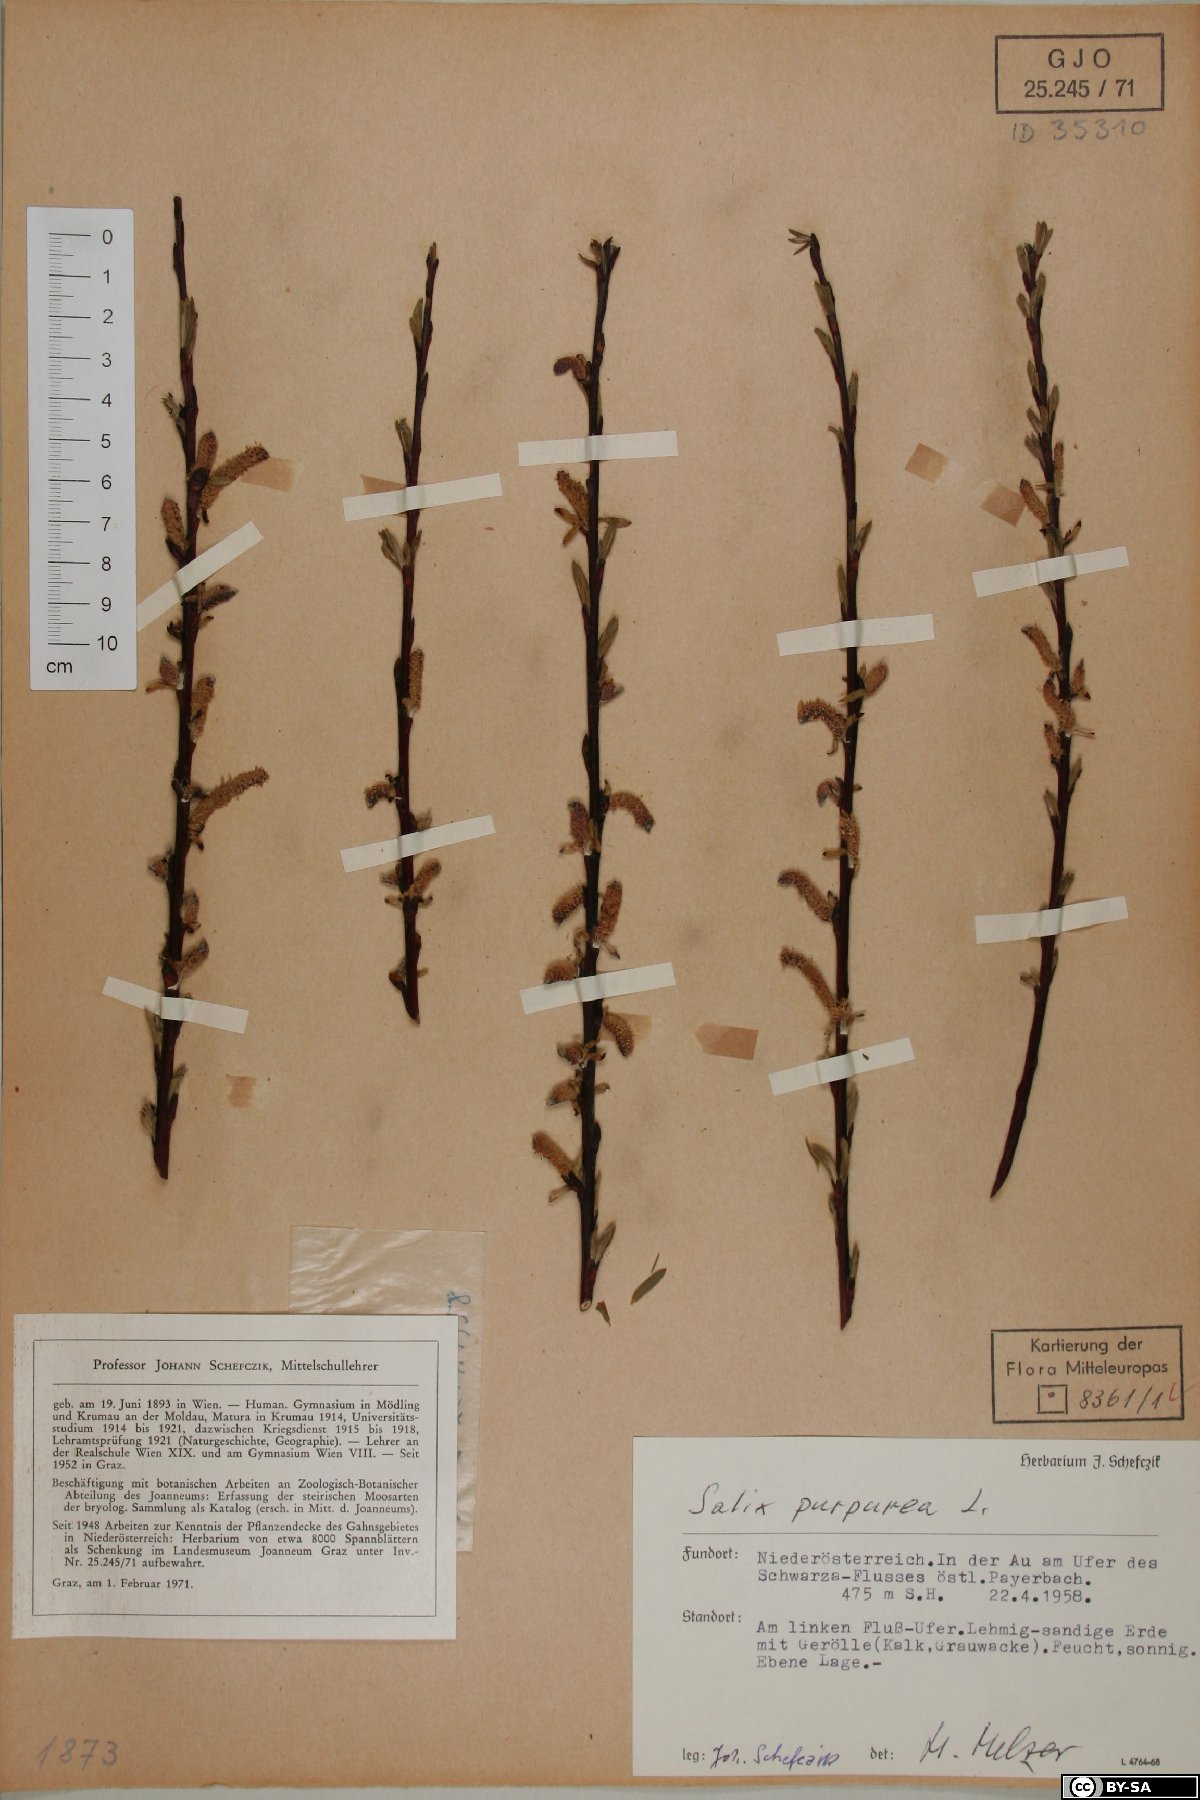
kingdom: Plantae
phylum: Tracheophyta
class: Magnoliopsida
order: Malpighiales
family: Salicaceae
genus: Salix
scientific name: Salix purpurea
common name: Purple willow
